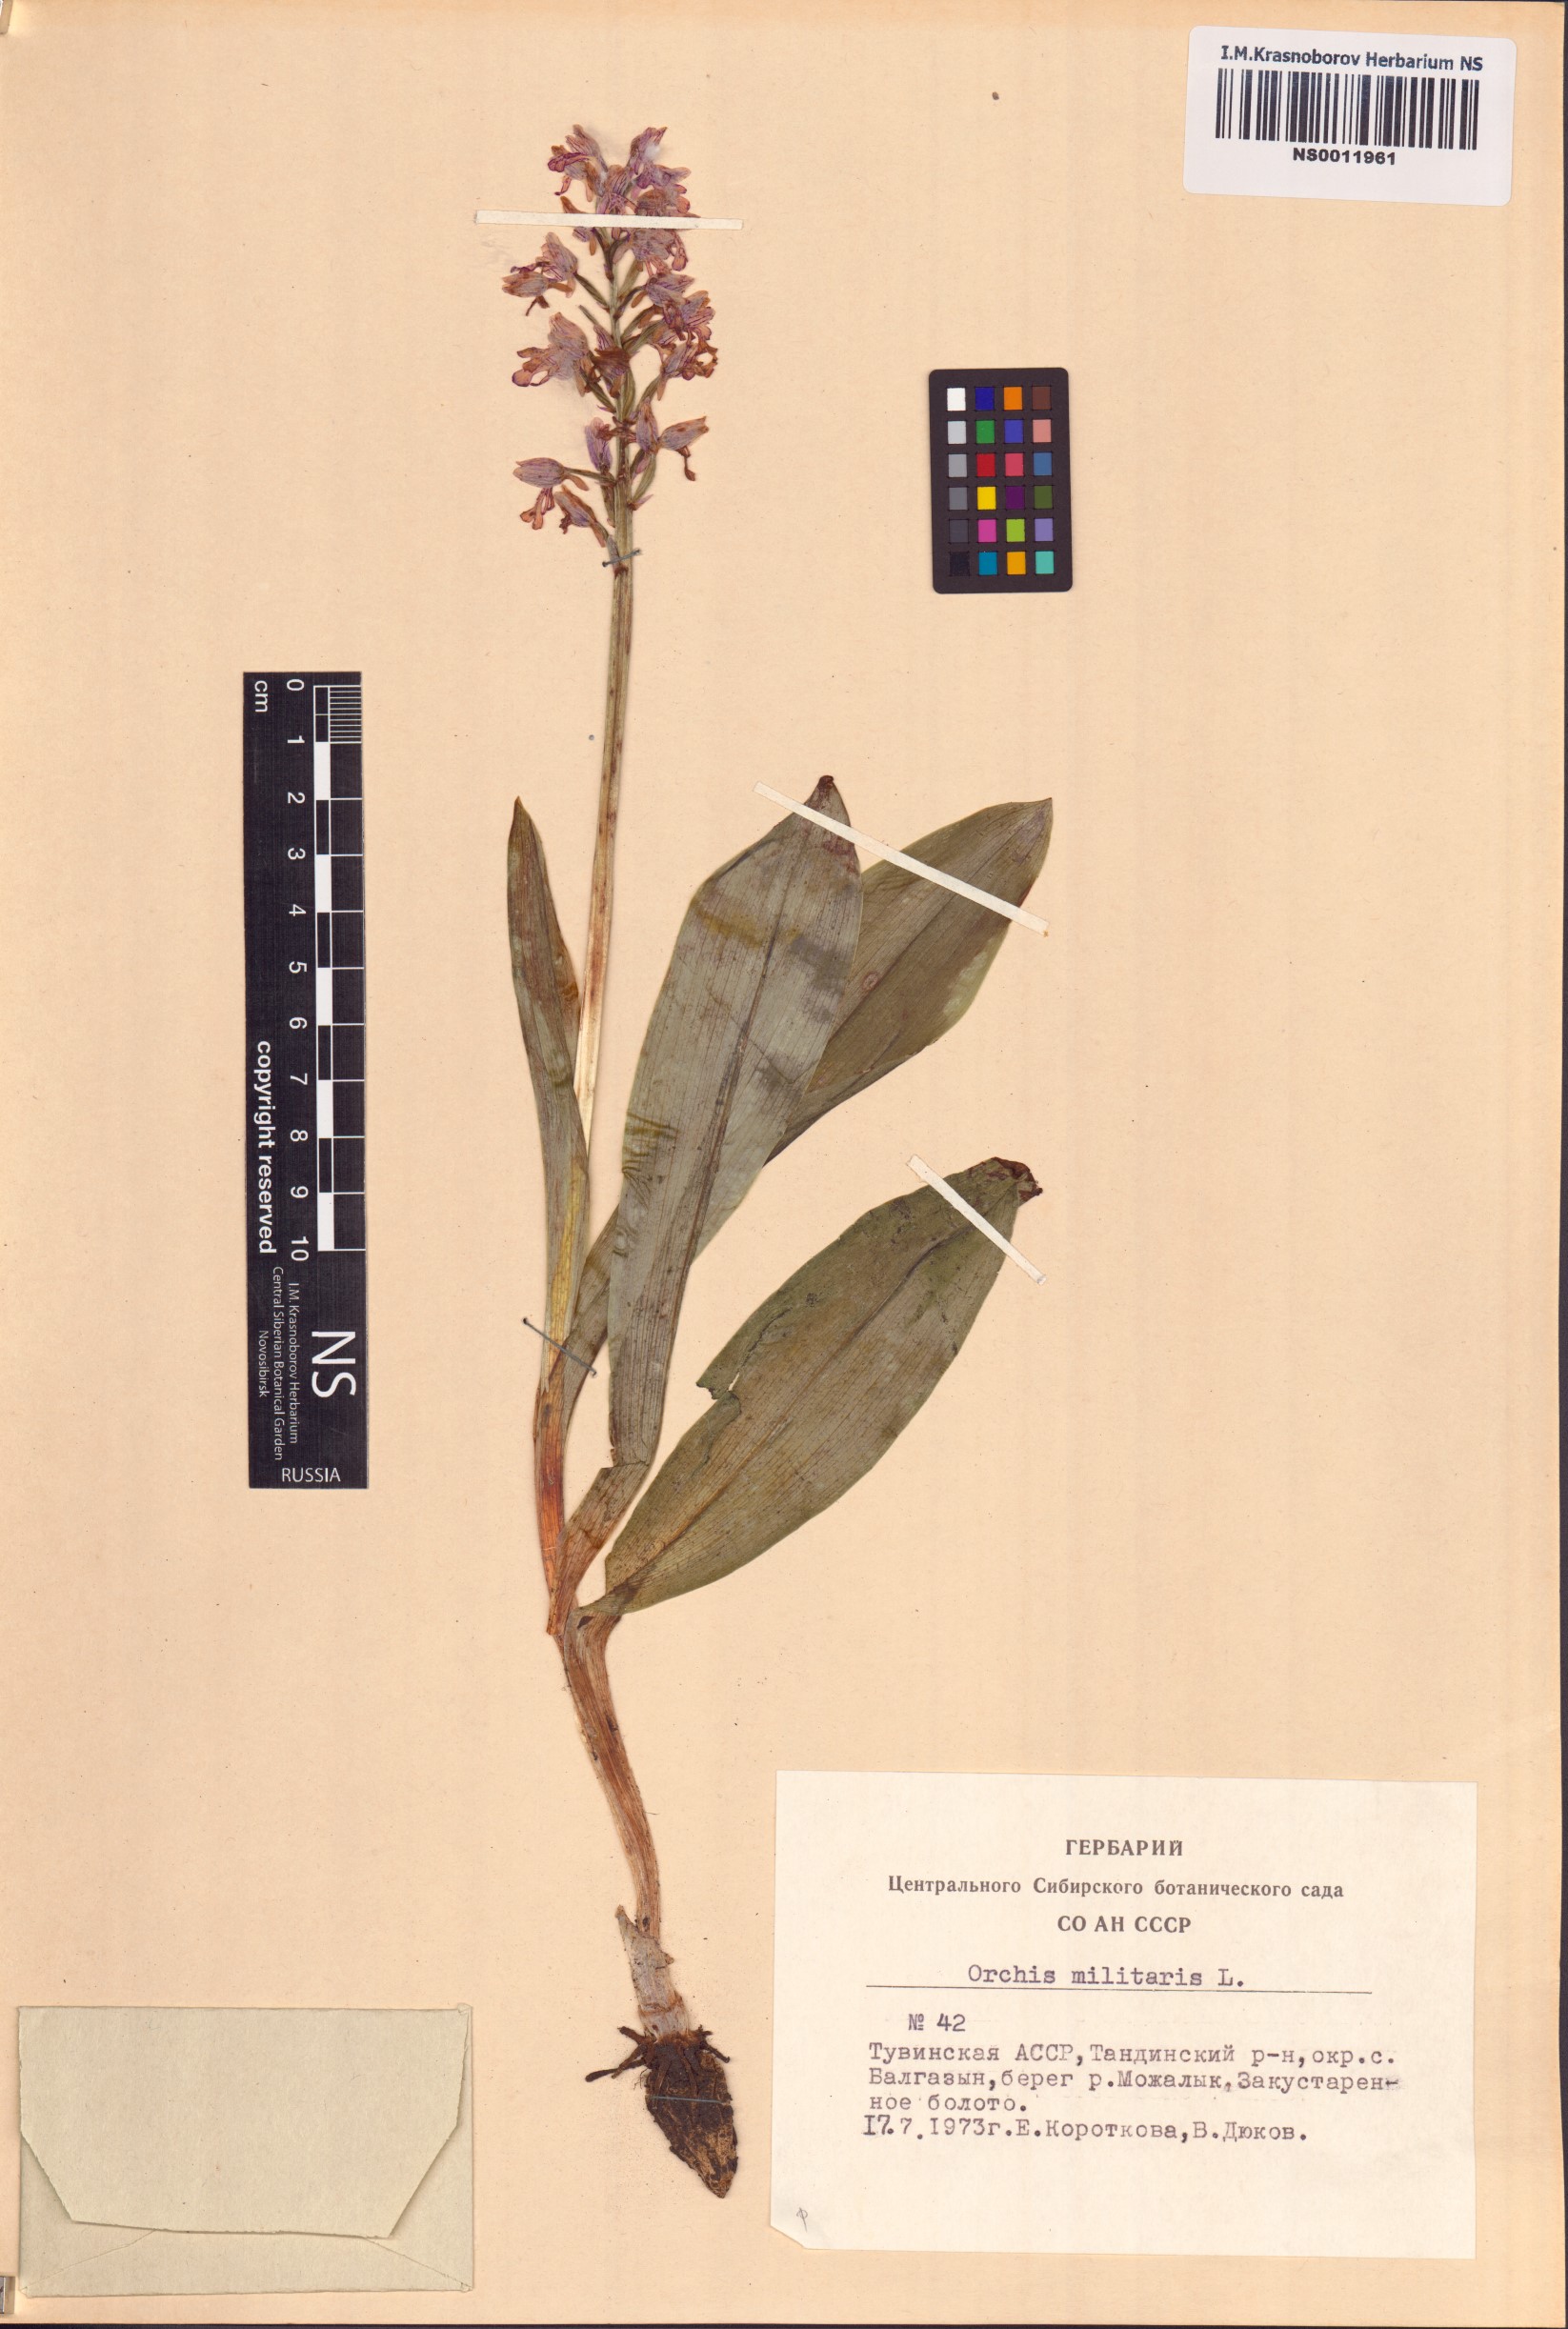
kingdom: Plantae
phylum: Tracheophyta
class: Liliopsida
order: Asparagales
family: Orchidaceae
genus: Orchis
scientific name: Orchis militaris
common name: Military orchid
